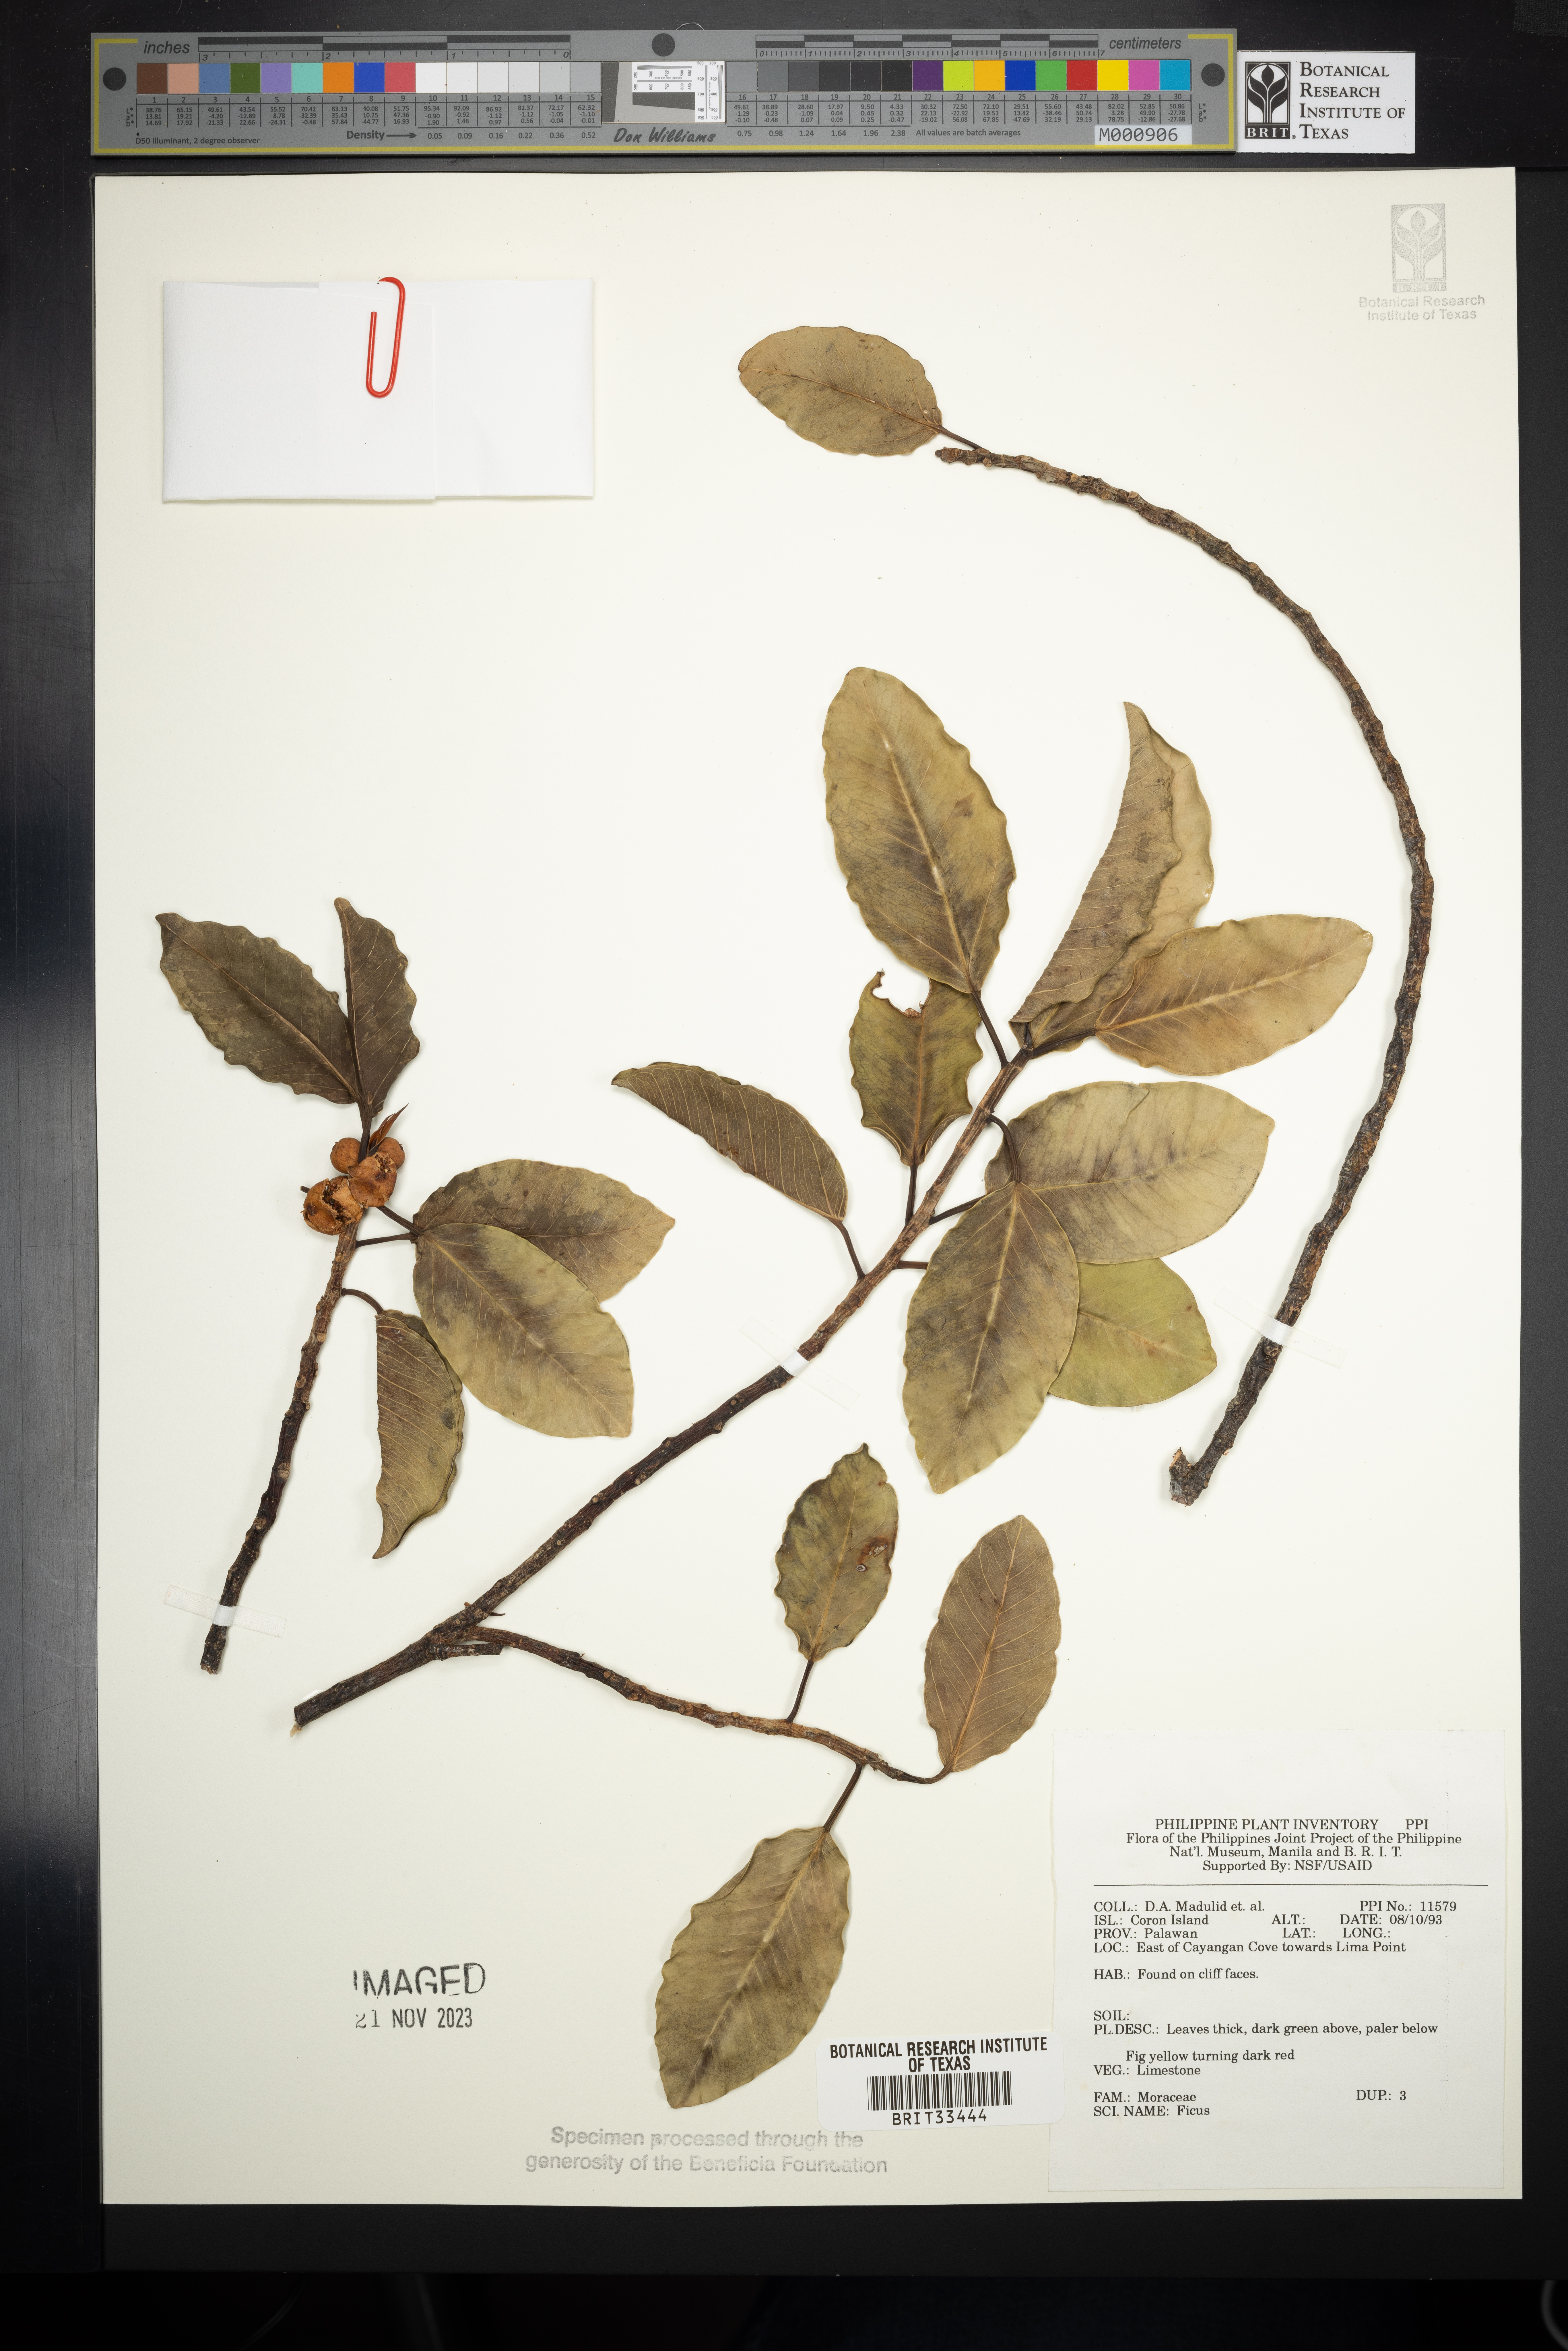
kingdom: Plantae
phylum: Tracheophyta
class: Magnoliopsida
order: Rosales
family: Moraceae
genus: Ficus
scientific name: Ficus
